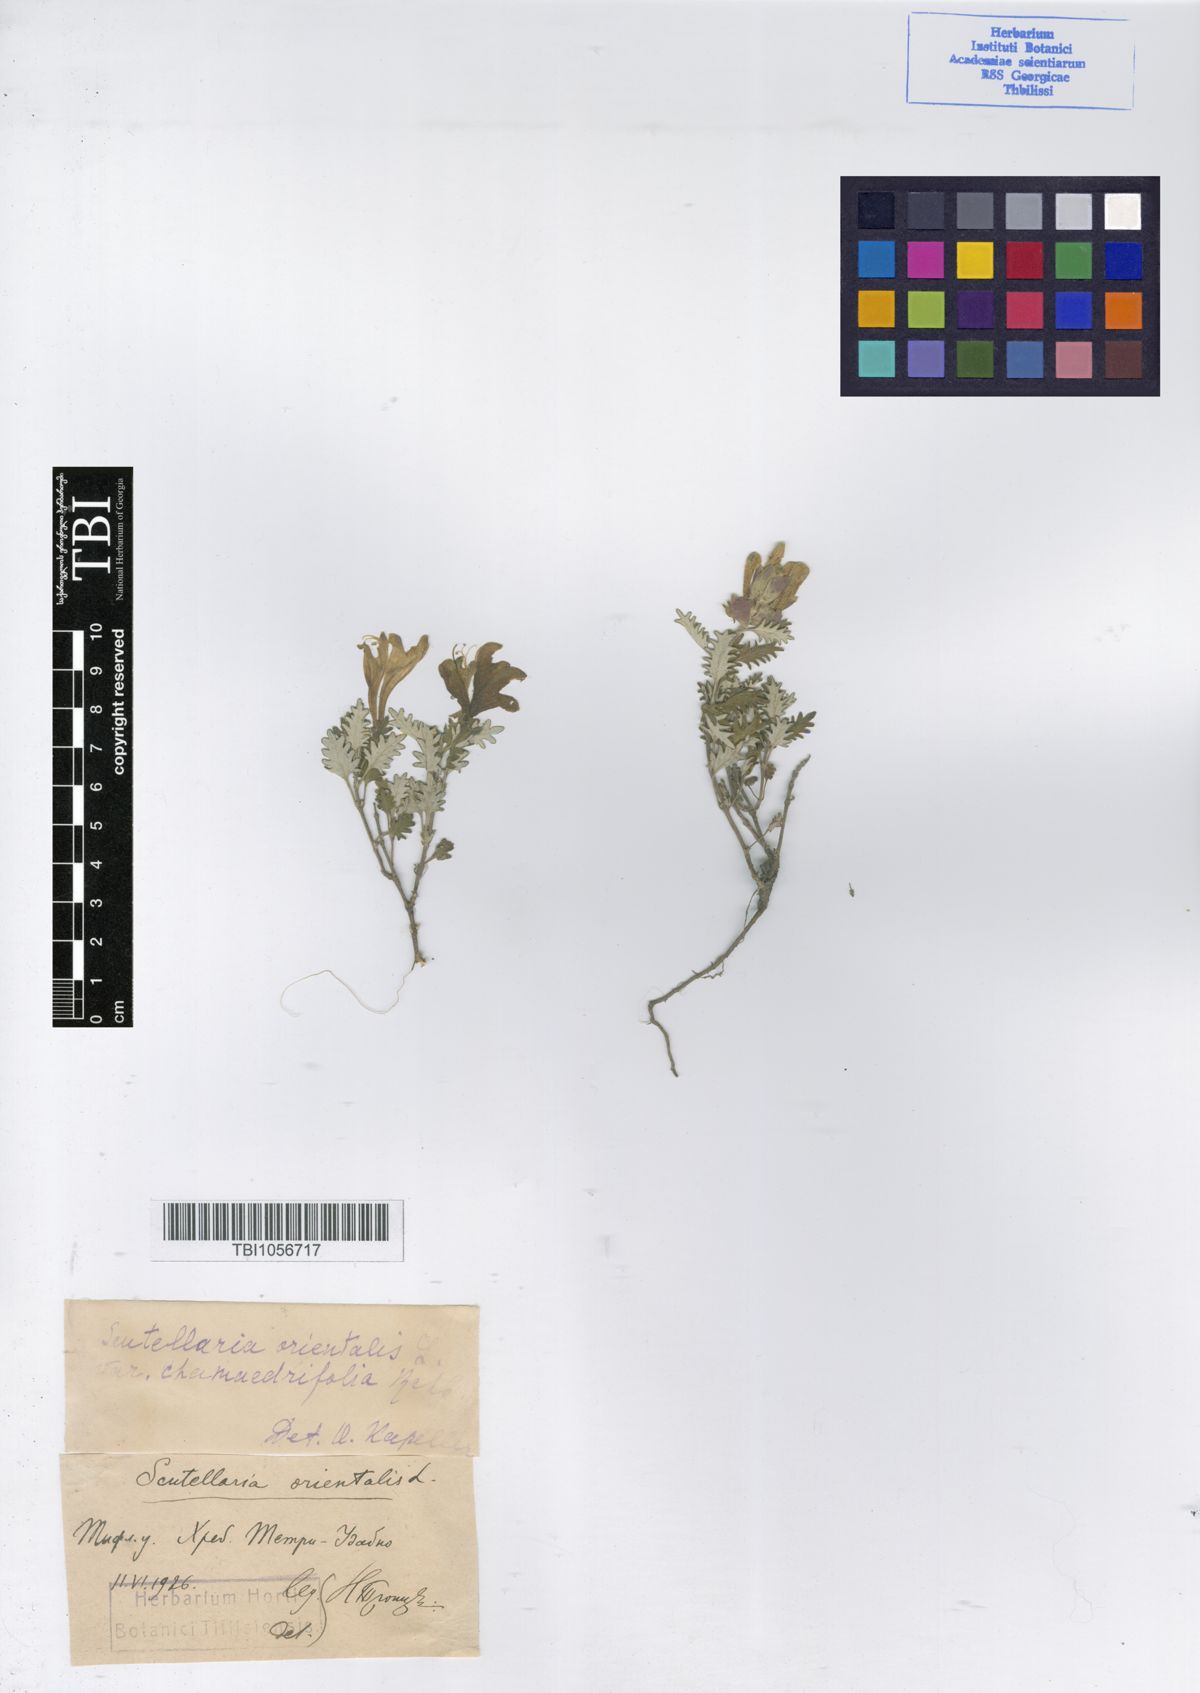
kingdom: Plantae
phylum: Tracheophyta
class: Magnoliopsida
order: Lamiales
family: Lamiaceae
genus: Scutellaria
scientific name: Scutellaria orientalis
